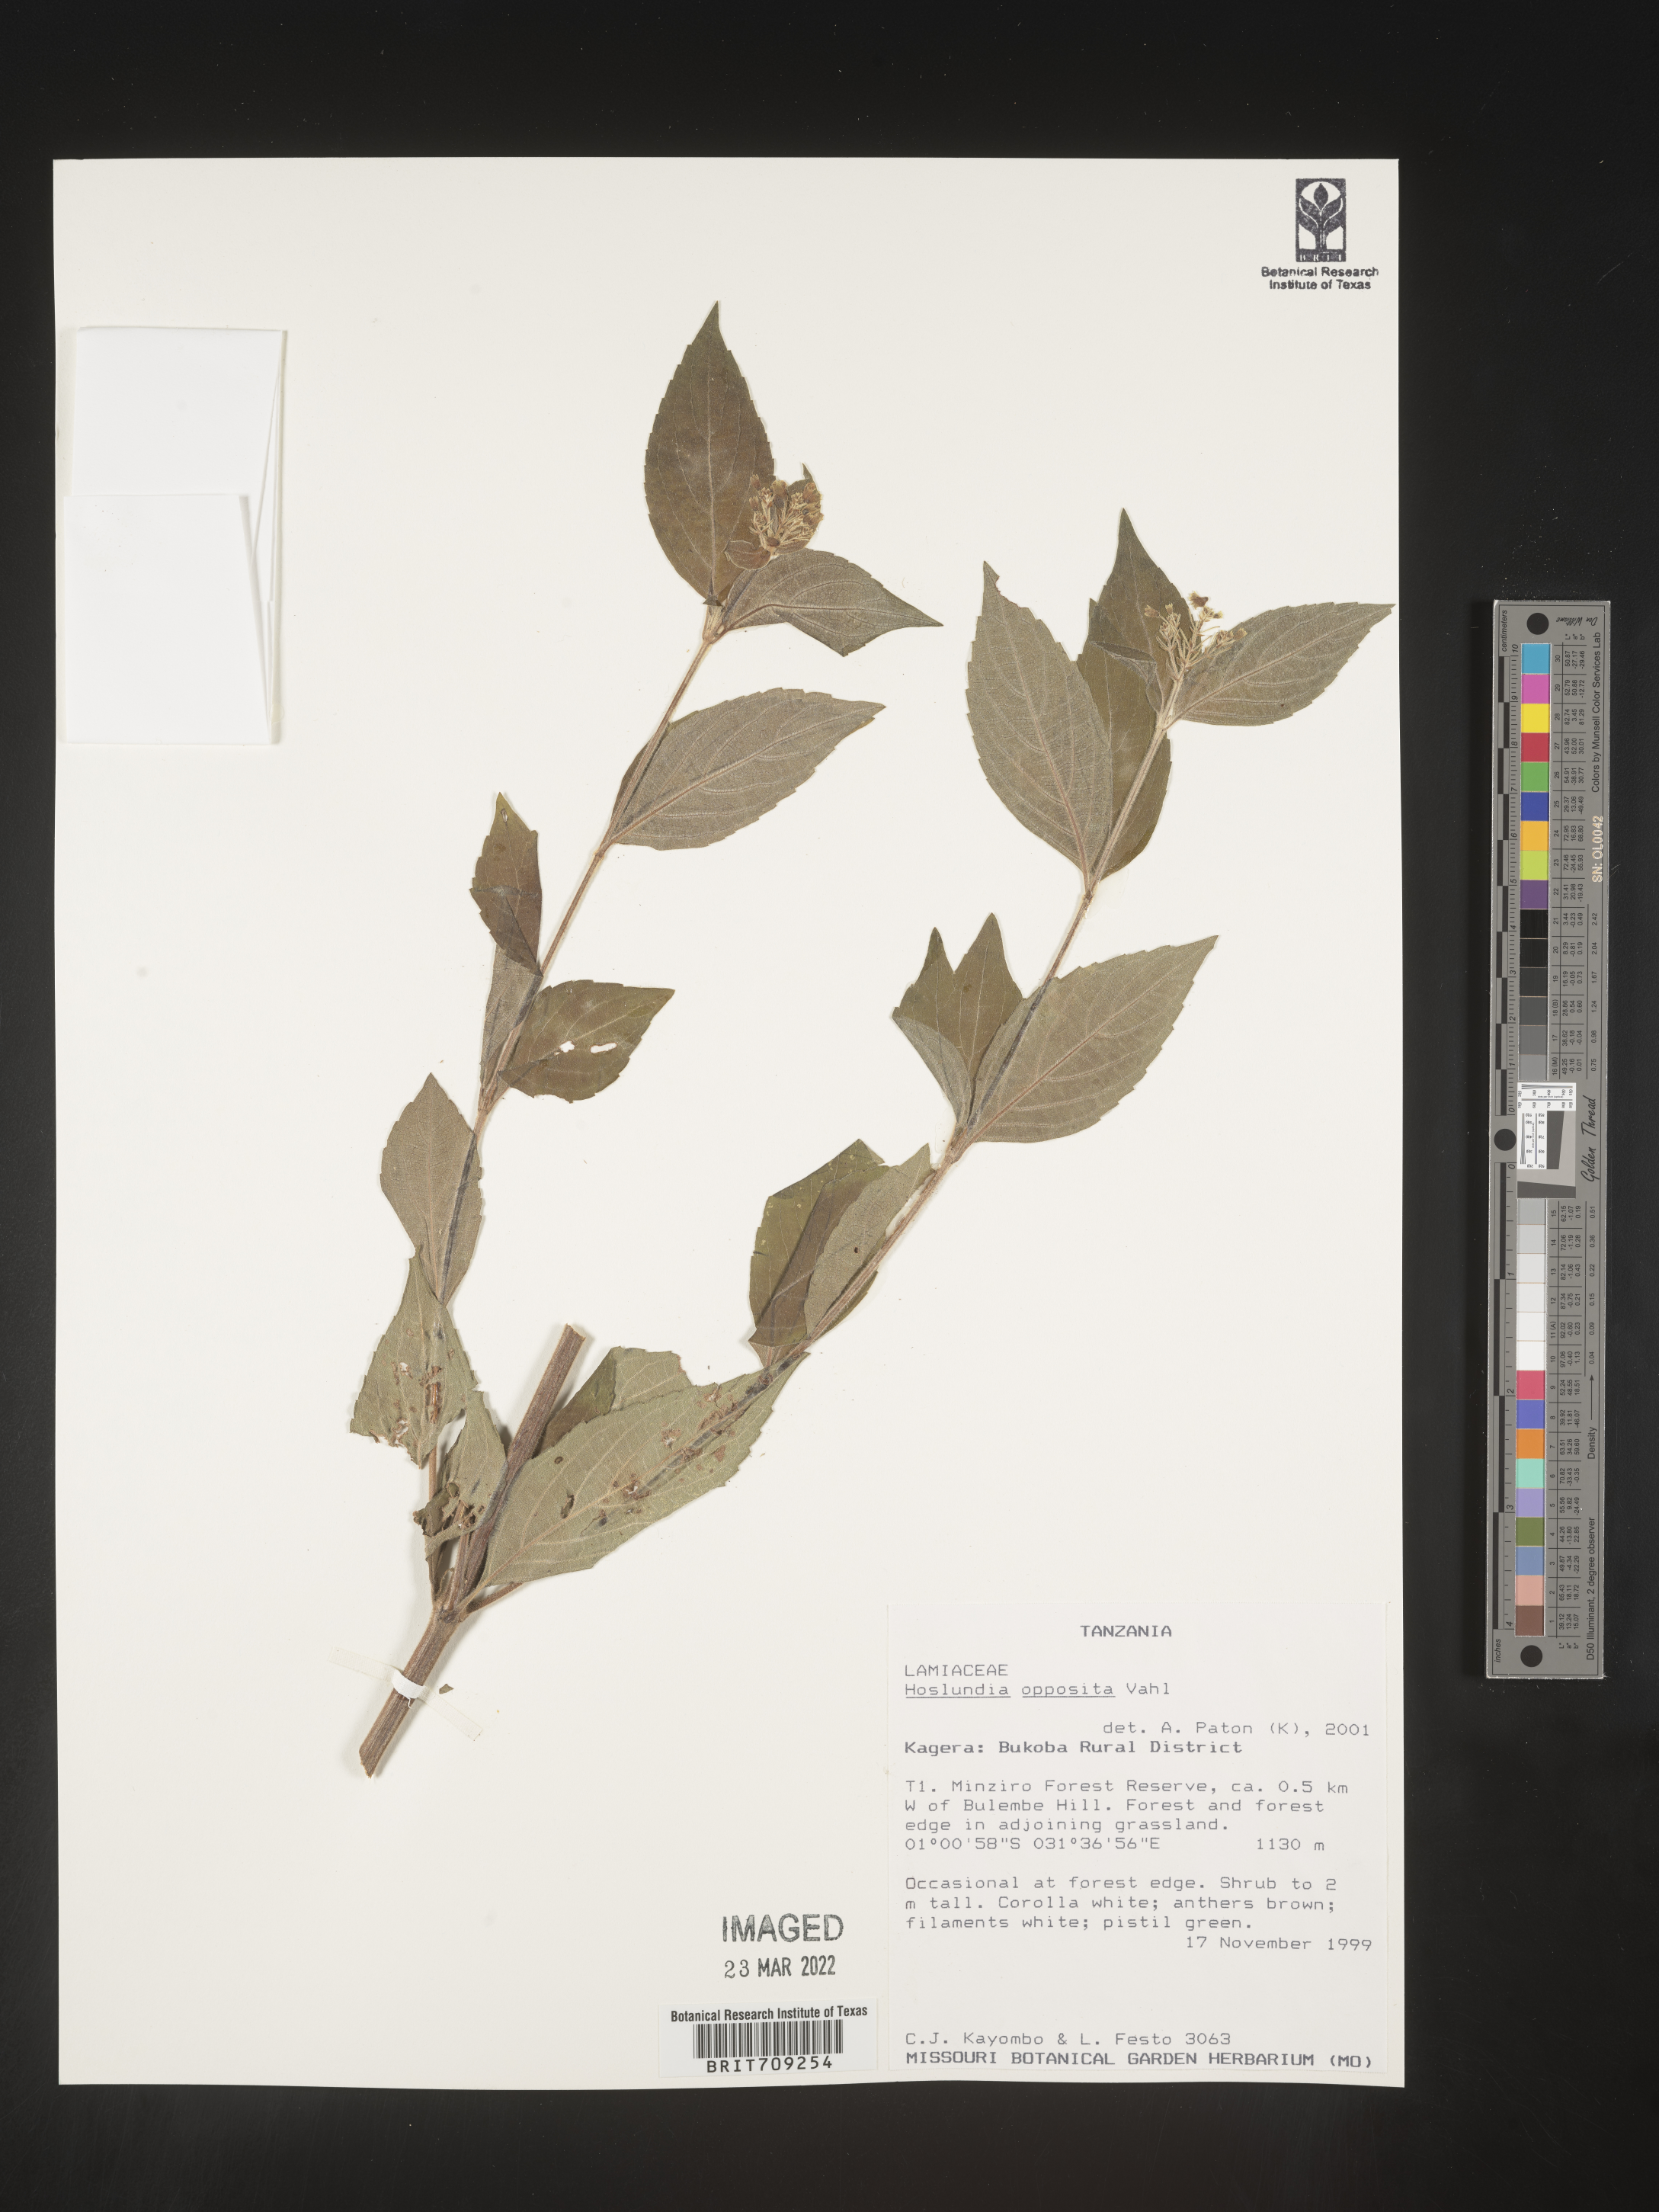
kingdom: Plantae
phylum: Tracheophyta
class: Magnoliopsida
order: Lamiales
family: Lamiaceae
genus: Hoslundia
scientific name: Hoslundia opposita
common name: Kamyuye
